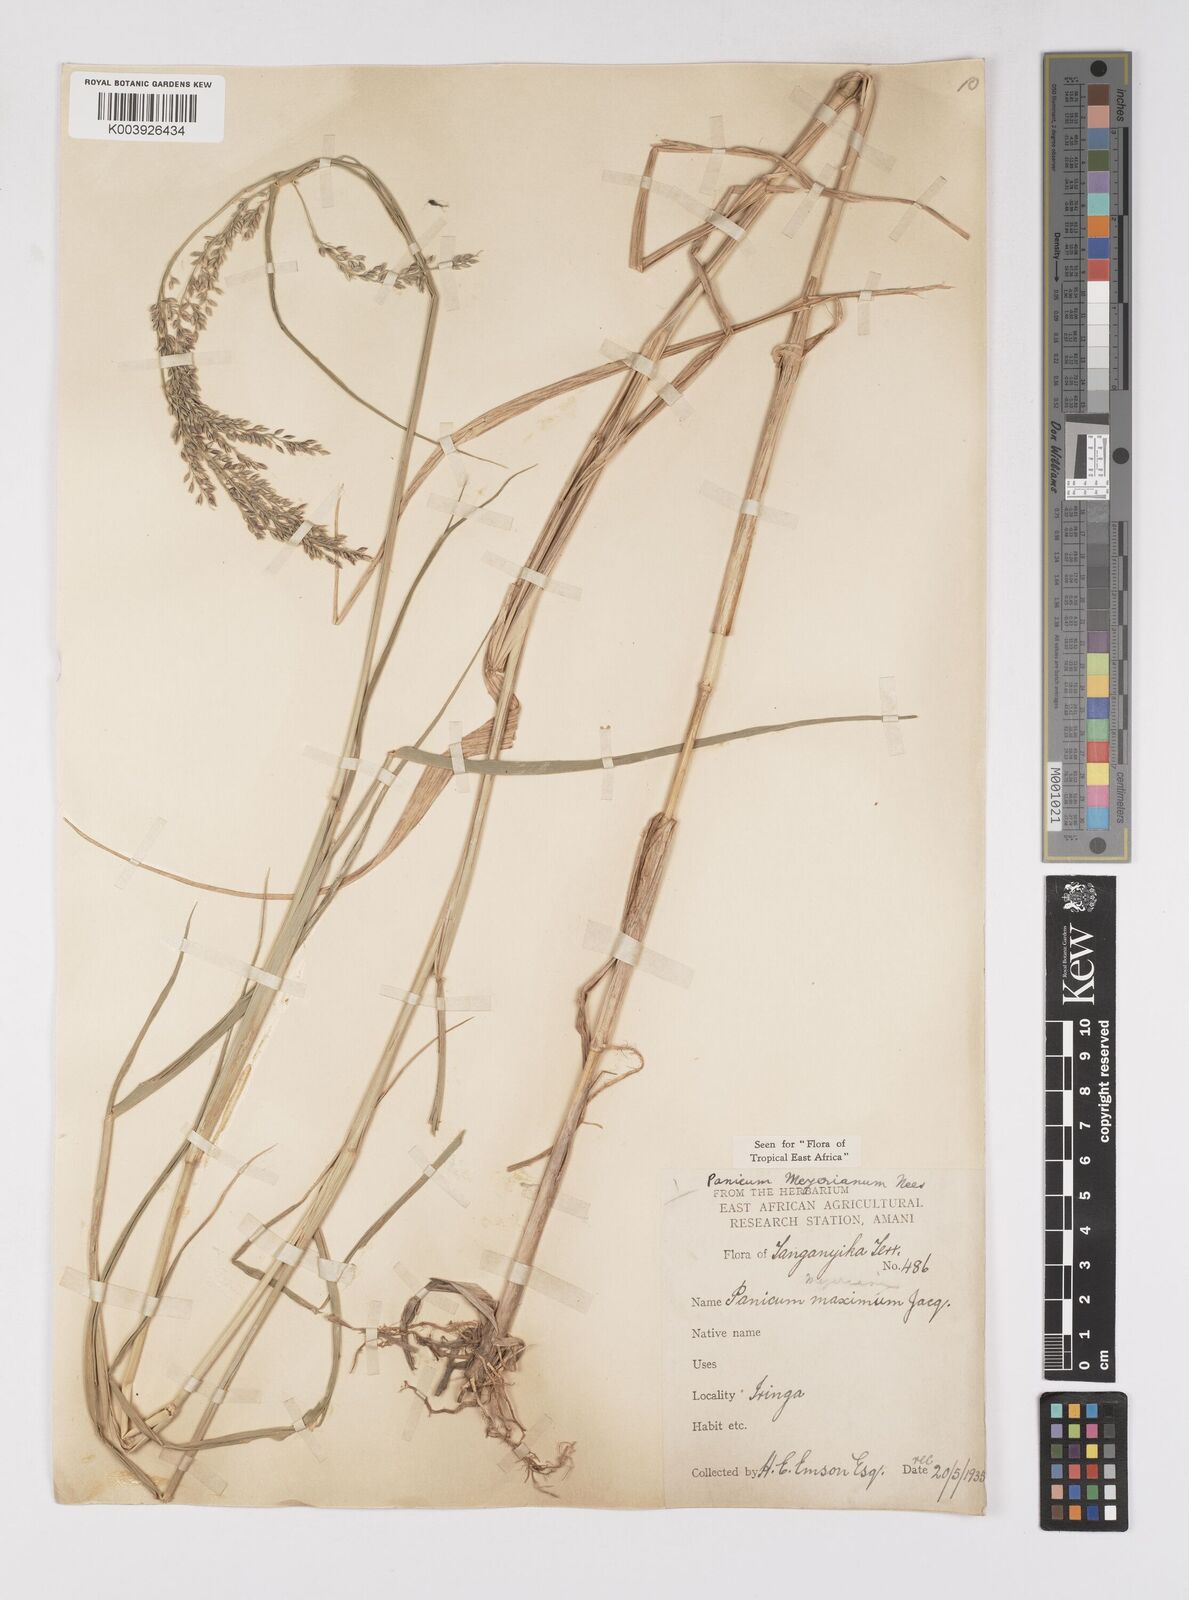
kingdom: Plantae
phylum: Tracheophyta
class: Liliopsida
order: Poales
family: Poaceae
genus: Eriochloa
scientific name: Eriochloa meyeriana
